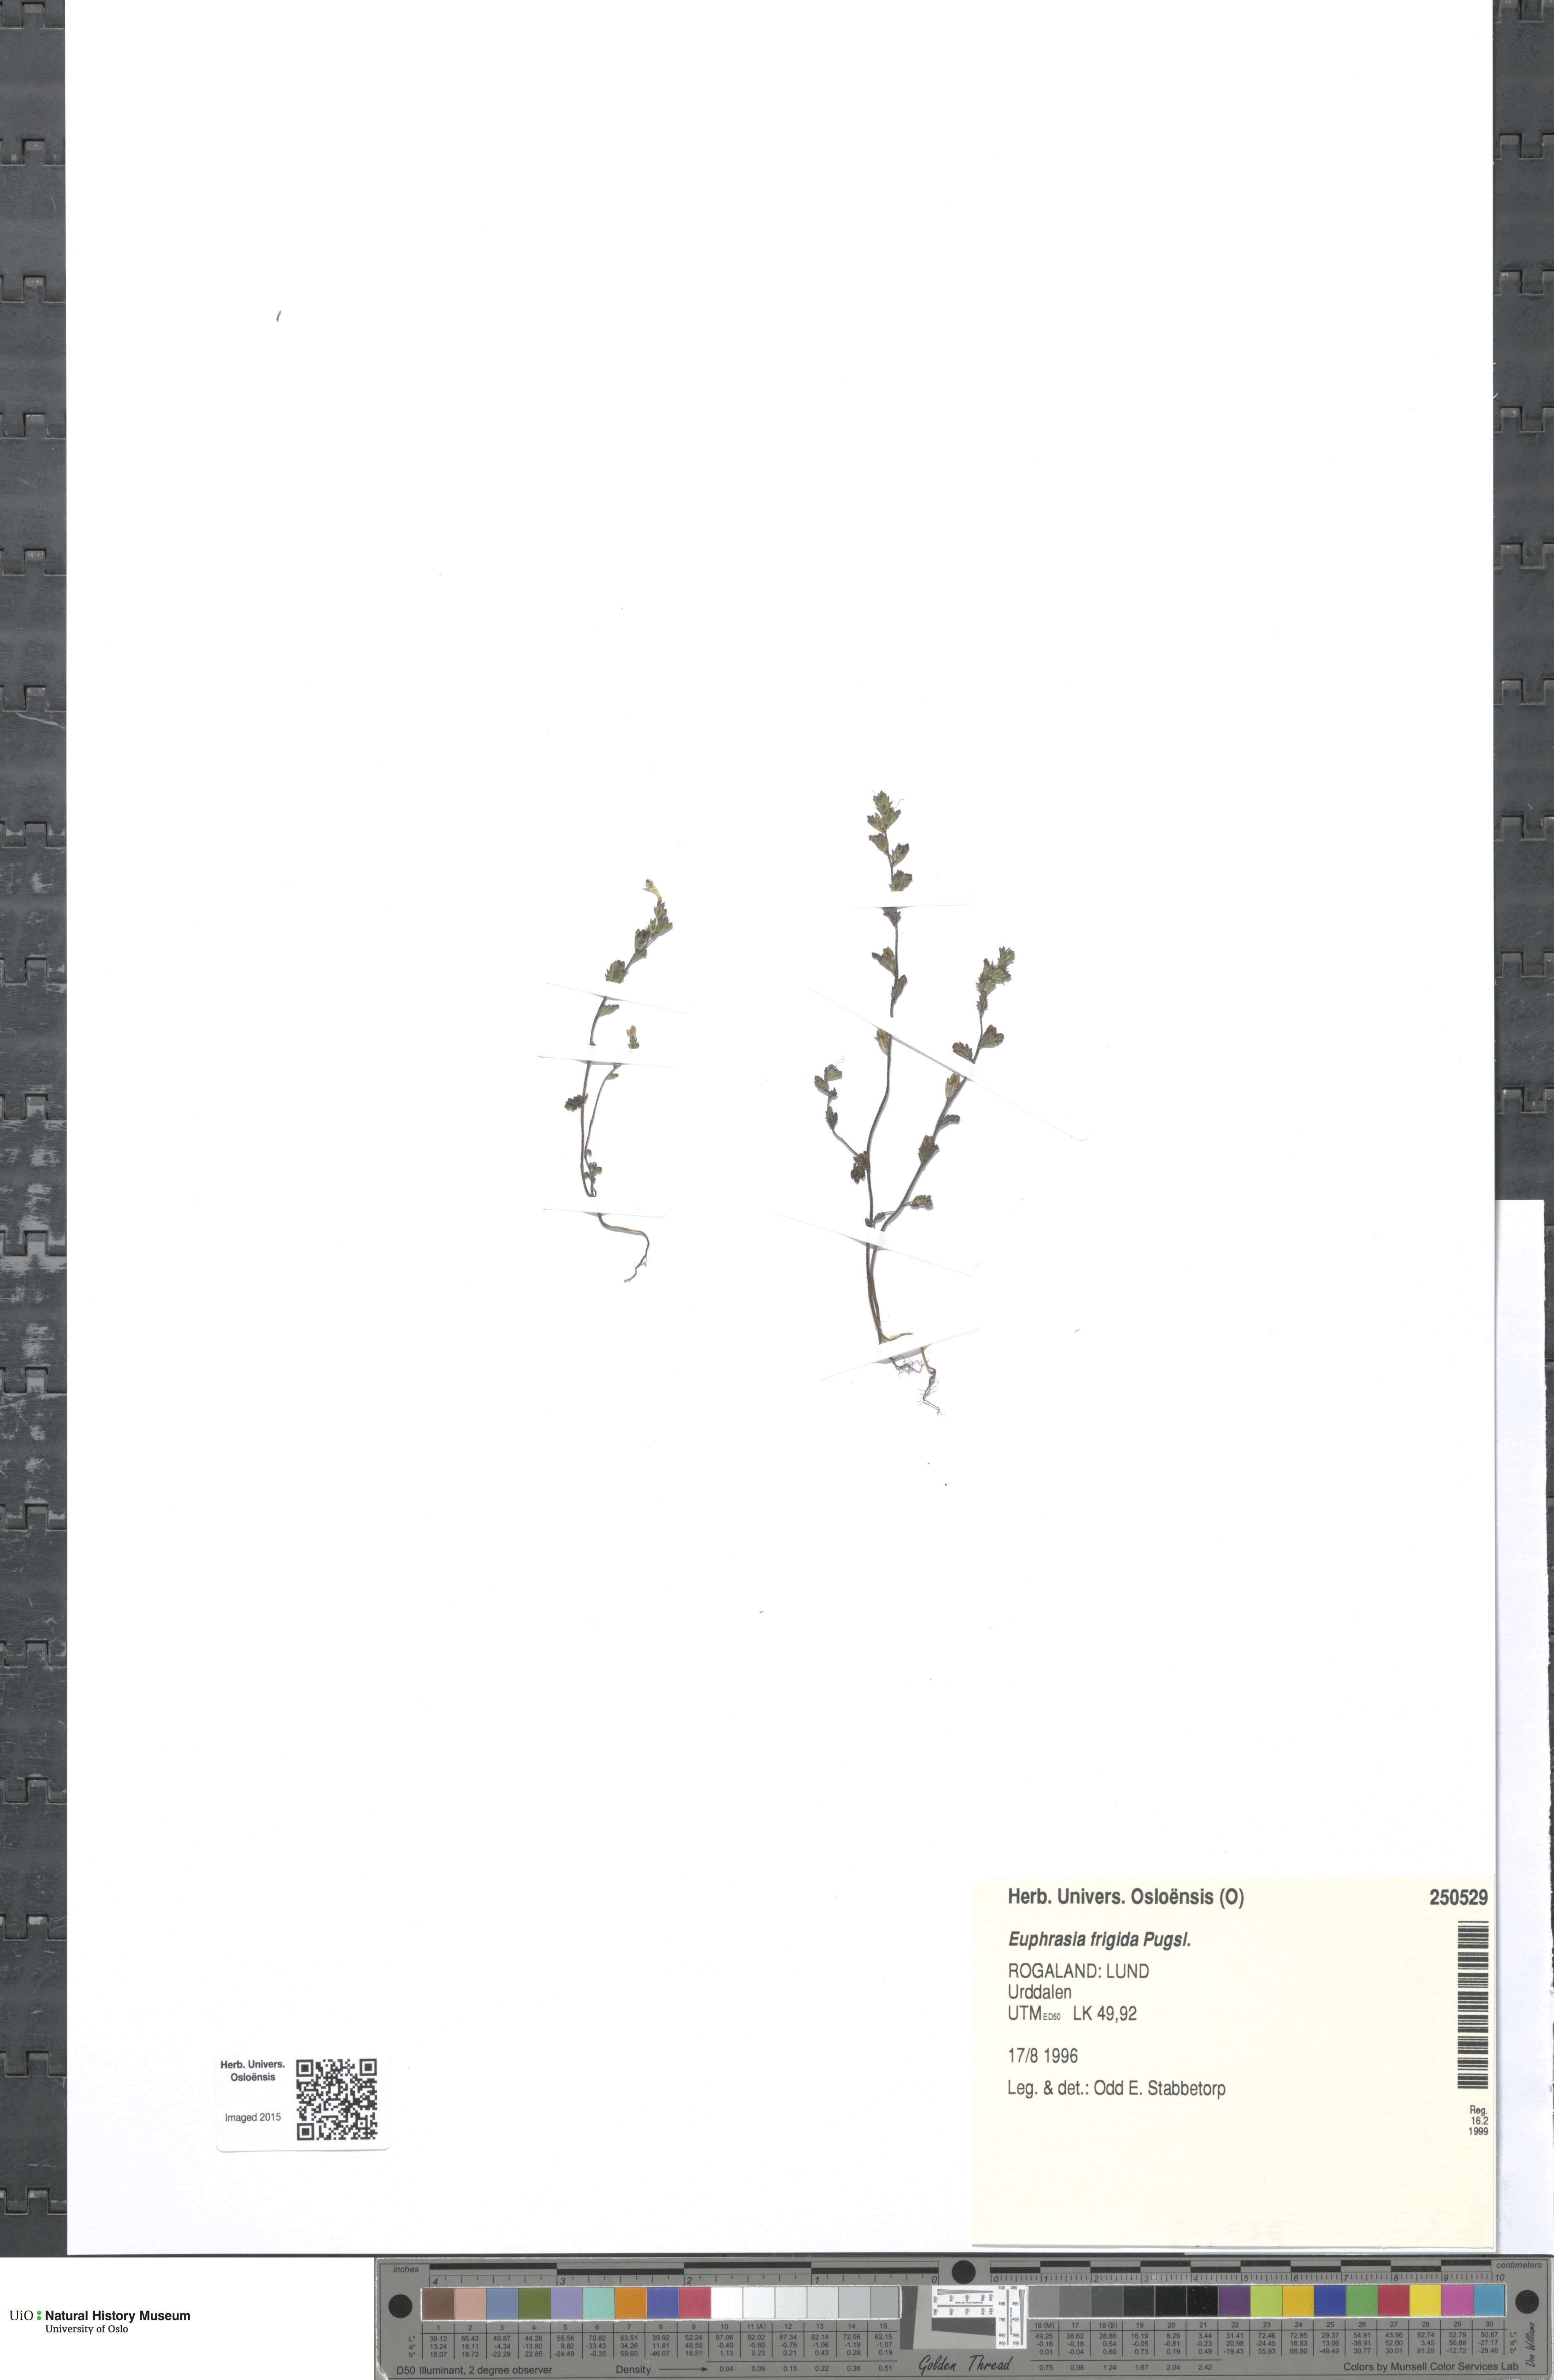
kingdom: Plantae
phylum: Tracheophyta
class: Magnoliopsida
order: Lamiales
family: Orobanchaceae
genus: Euphrasia
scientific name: Euphrasia frigida
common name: An eyebright
